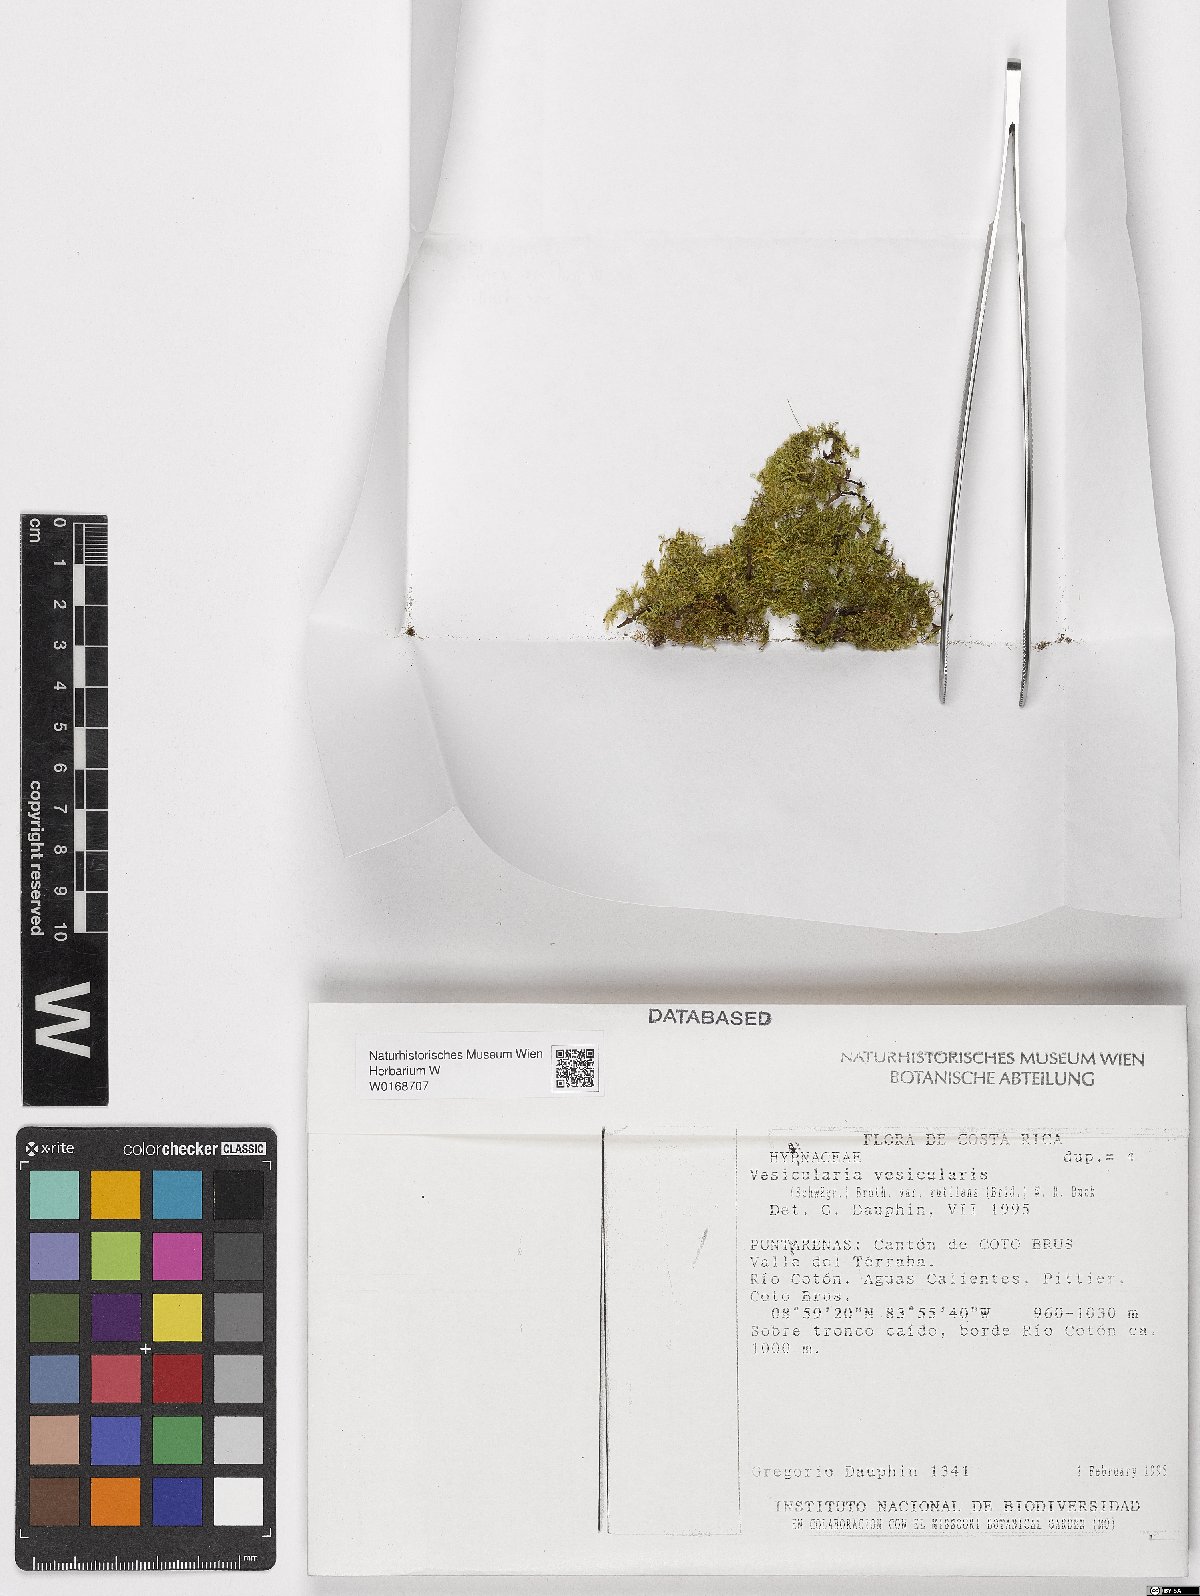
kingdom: Plantae
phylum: Bryophyta
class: Bryopsida
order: Hypnales
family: Hypnaceae
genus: Vesicularia
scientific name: Vesicularia vesicularis
